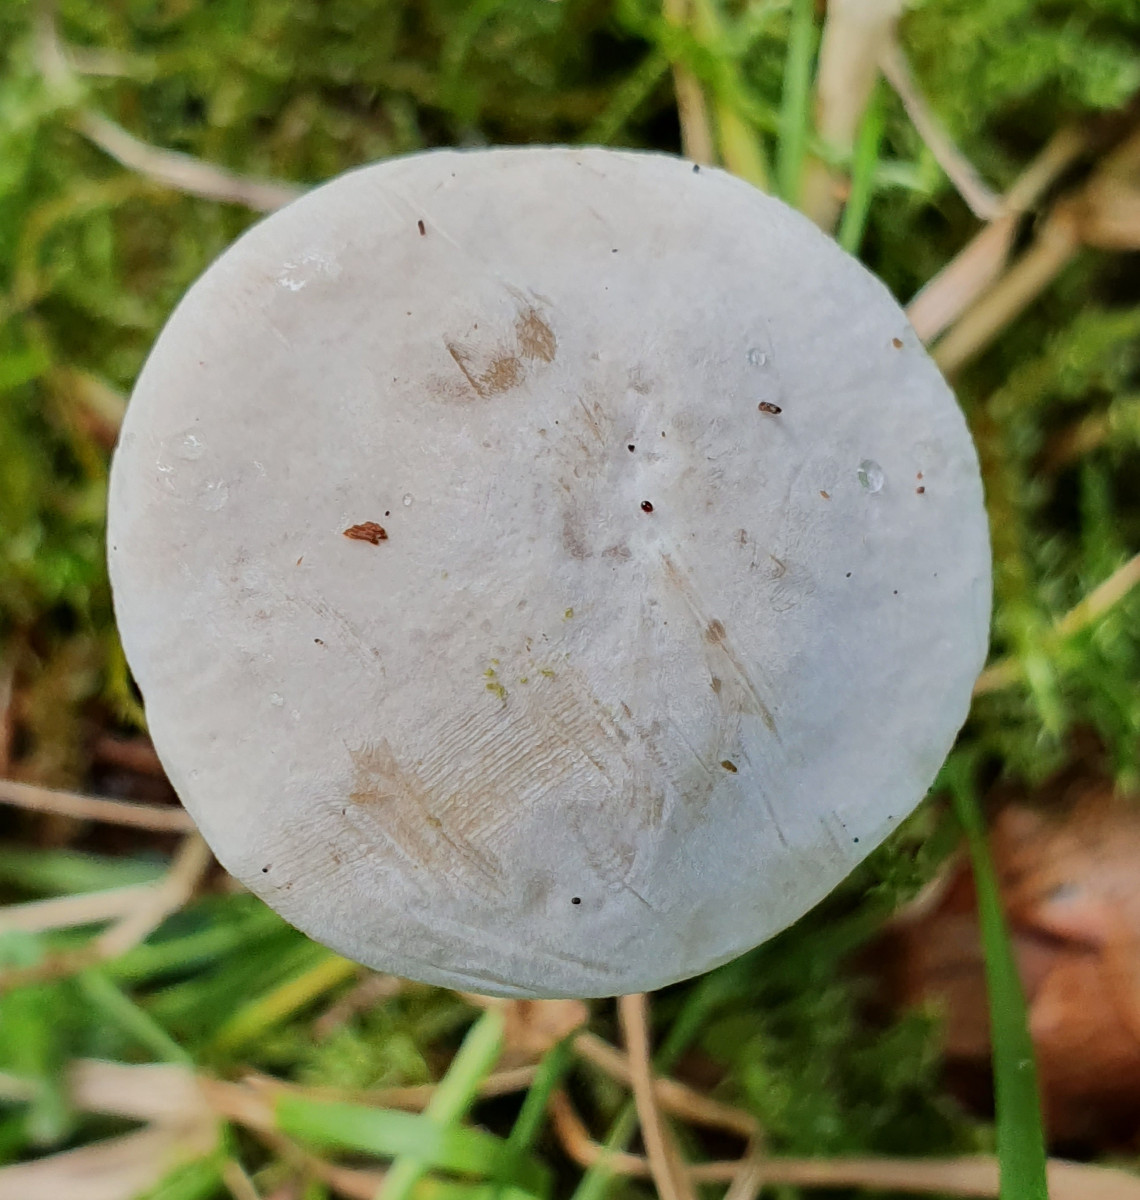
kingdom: Fungi
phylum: Basidiomycota
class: Agaricomycetes
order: Agaricales
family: Entolomataceae
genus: Clitopilus
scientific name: Clitopilus prunulus
